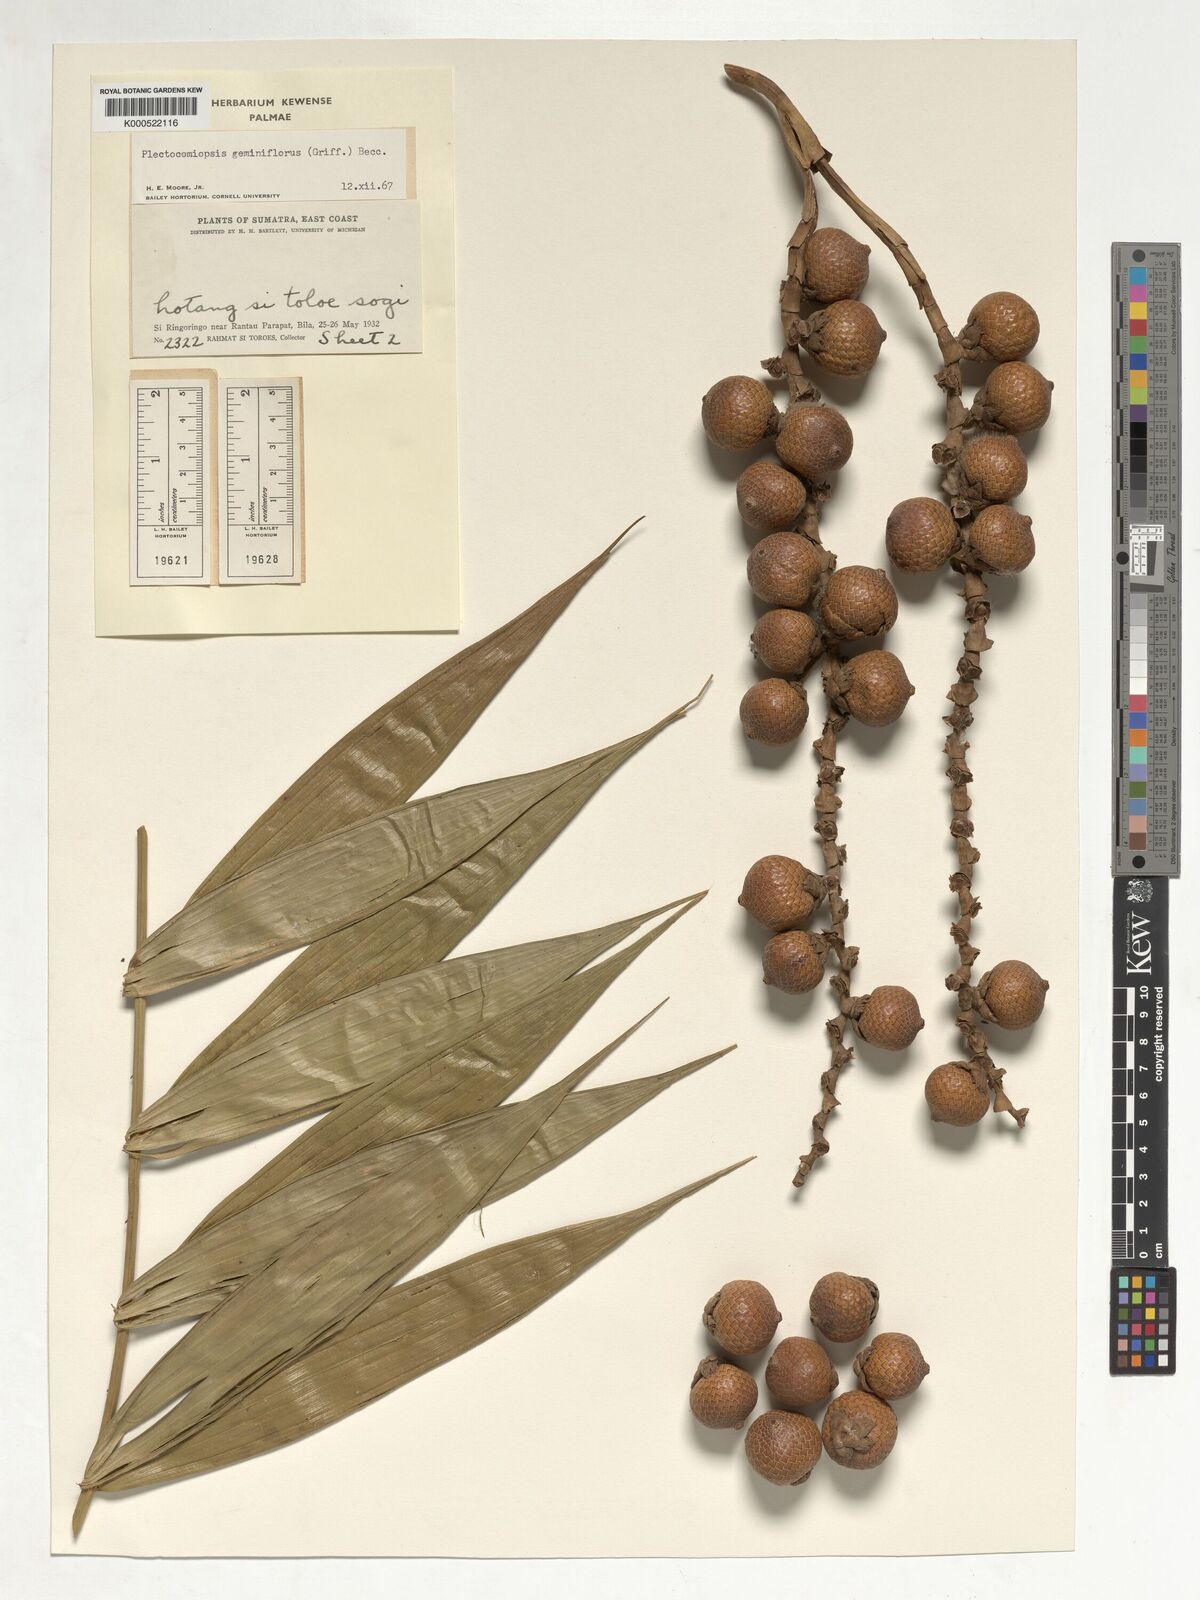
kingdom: Plantae
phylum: Tracheophyta
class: Liliopsida
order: Arecales
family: Arecaceae
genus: Plectocomiopsis
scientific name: Plectocomiopsis geminiflora
